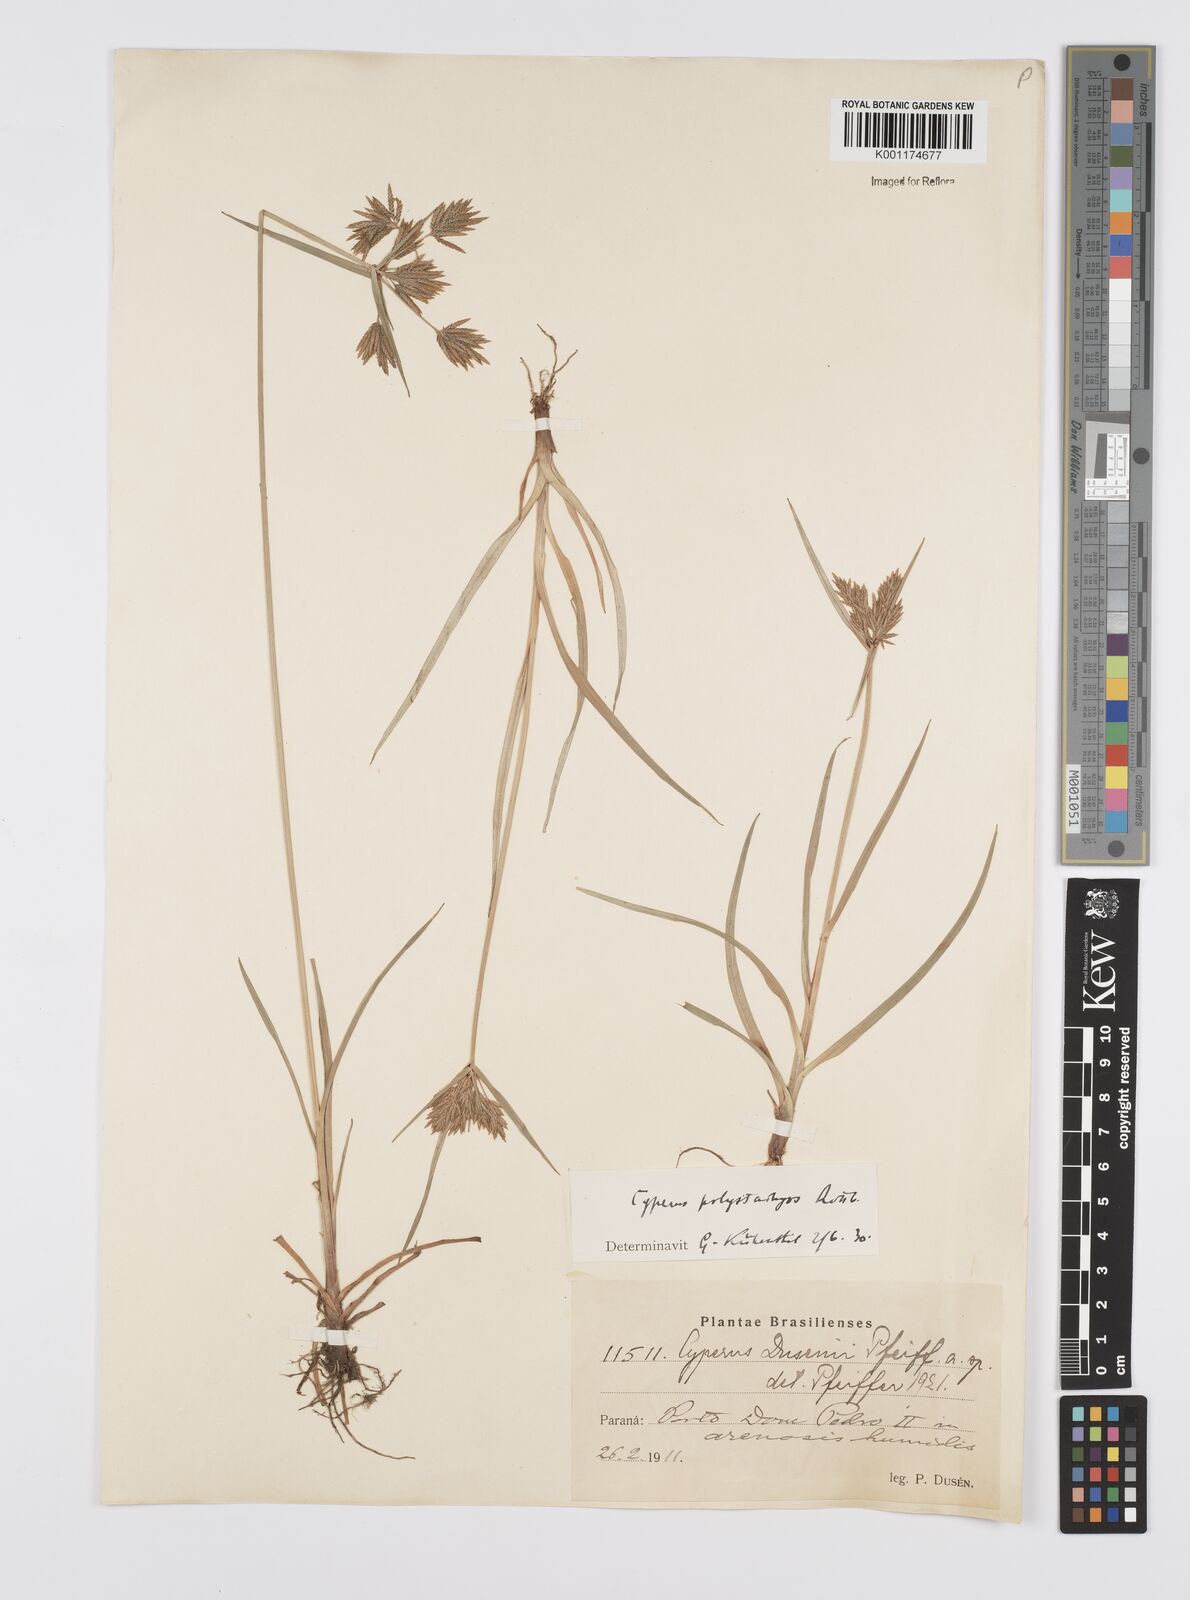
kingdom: Plantae
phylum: Tracheophyta
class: Liliopsida
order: Poales
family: Cyperaceae
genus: Cyperus
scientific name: Cyperus polystachyos
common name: Bunchy flat sedge
